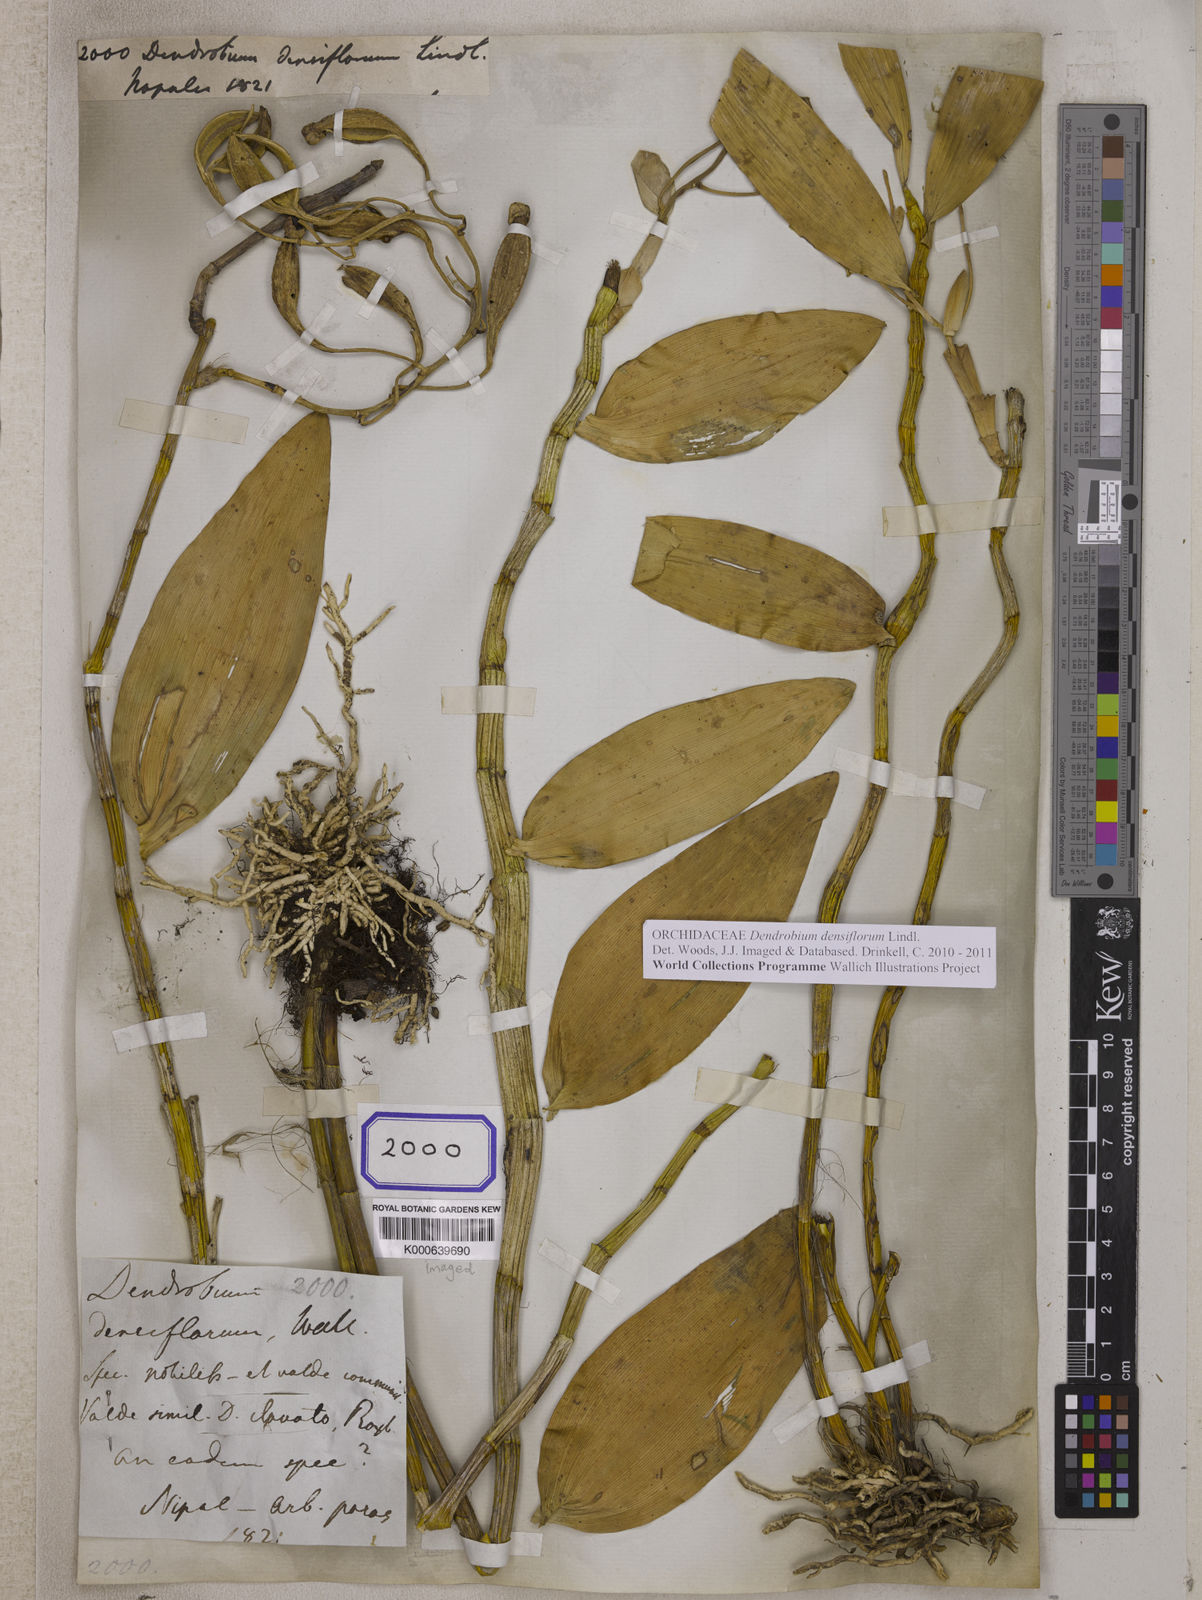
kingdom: Plantae
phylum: Tracheophyta
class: Liliopsida
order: Asparagales
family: Orchidaceae
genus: Dendrobium
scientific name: Dendrobium densiflorum
